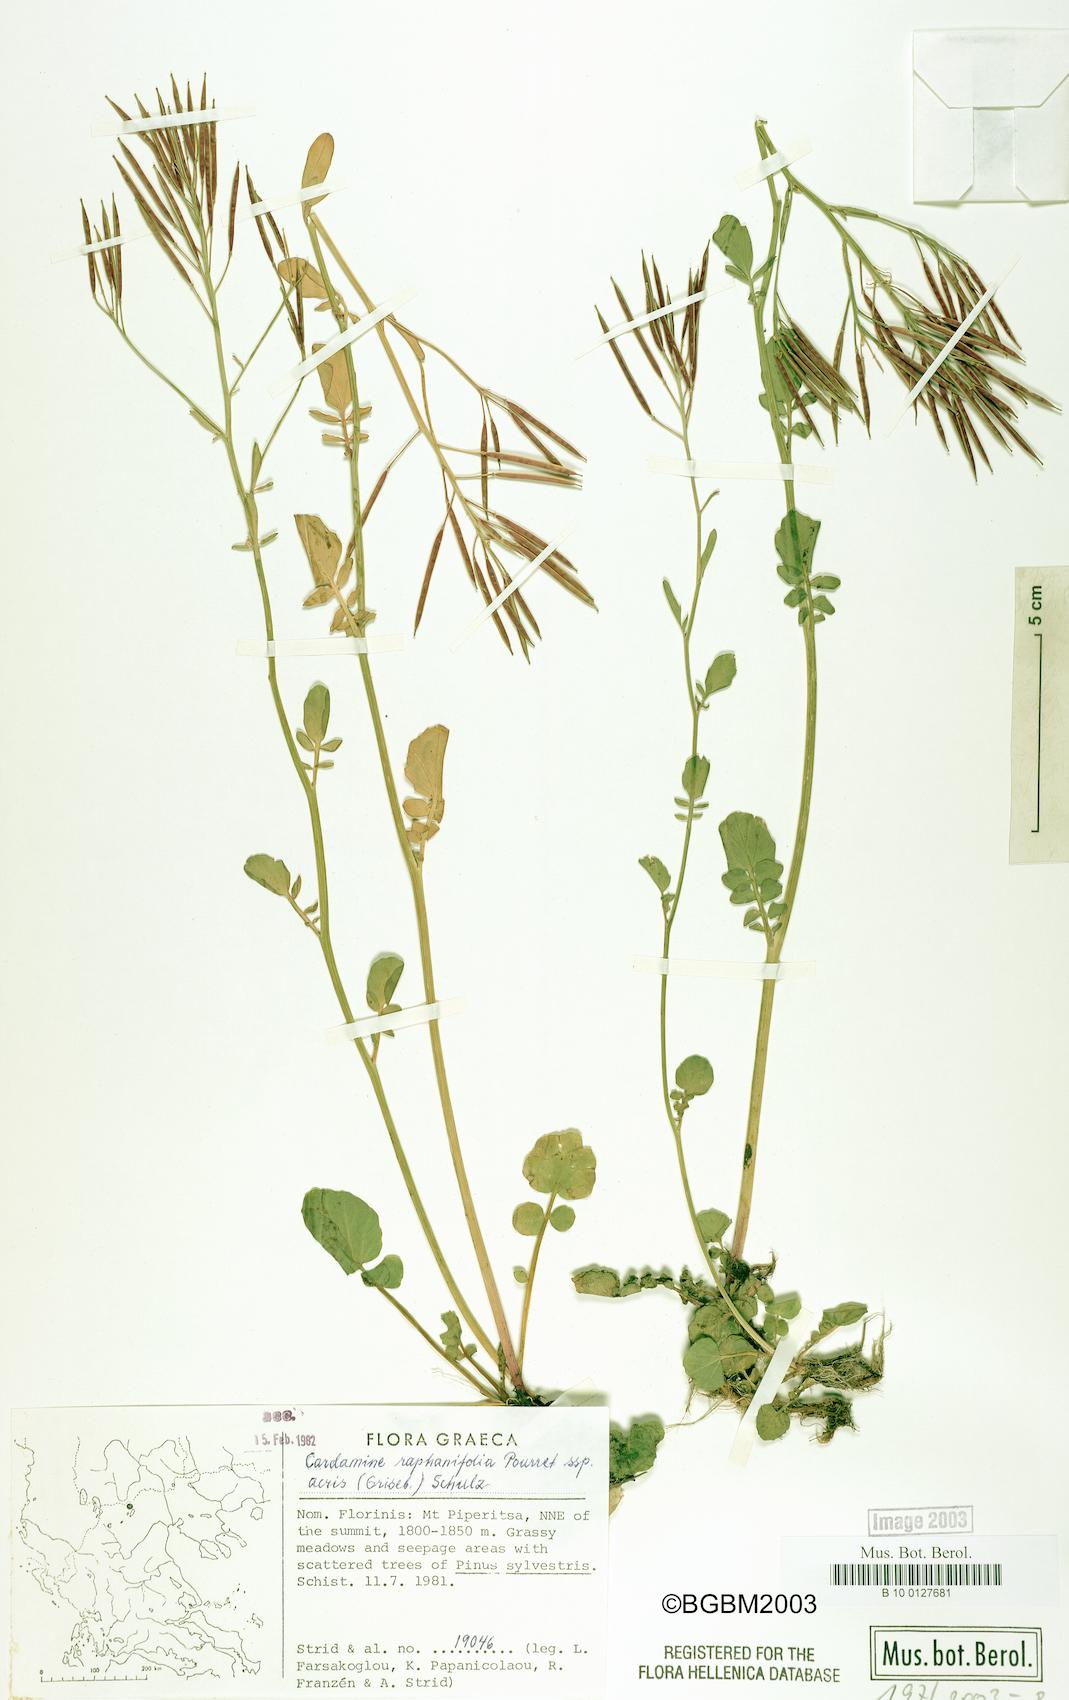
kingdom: Plantae
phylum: Tracheophyta
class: Magnoliopsida
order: Brassicales
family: Brassicaceae
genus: Cardamine
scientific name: Cardamine raphanifolia
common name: Greater cuckooflower
